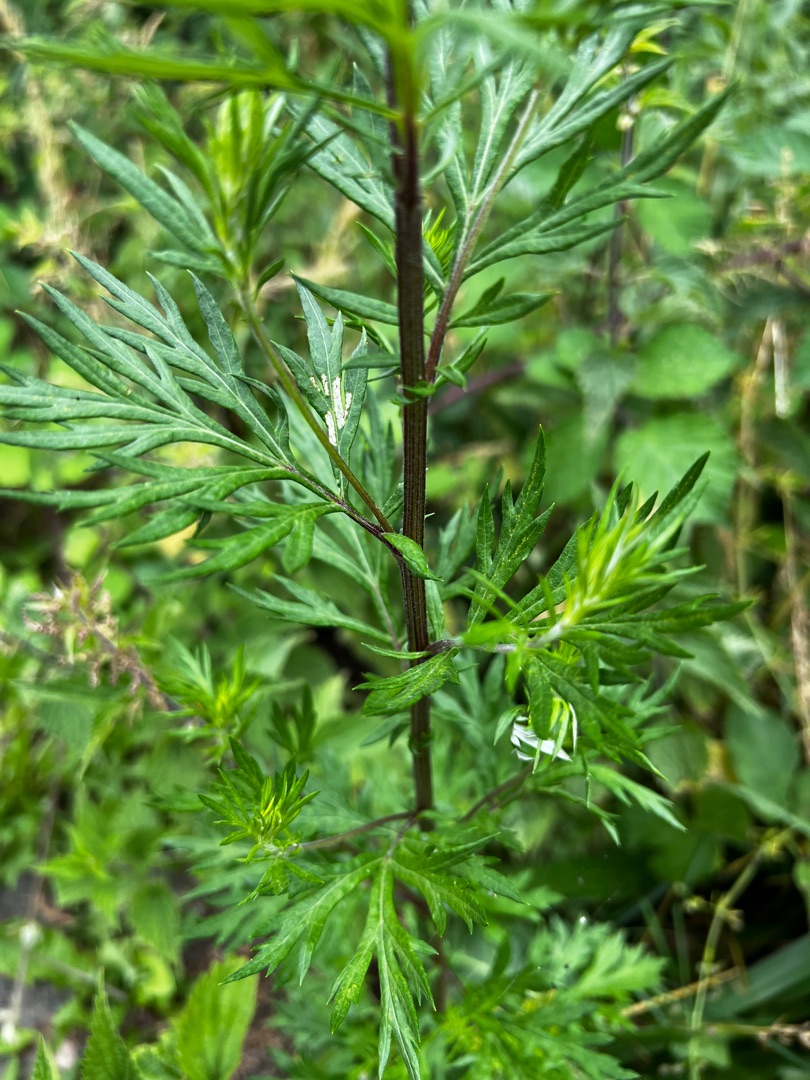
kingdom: Plantae
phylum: Tracheophyta
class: Magnoliopsida
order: Asterales
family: Asteraceae
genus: Artemisia
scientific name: Artemisia vulgaris
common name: Grå-bynke
